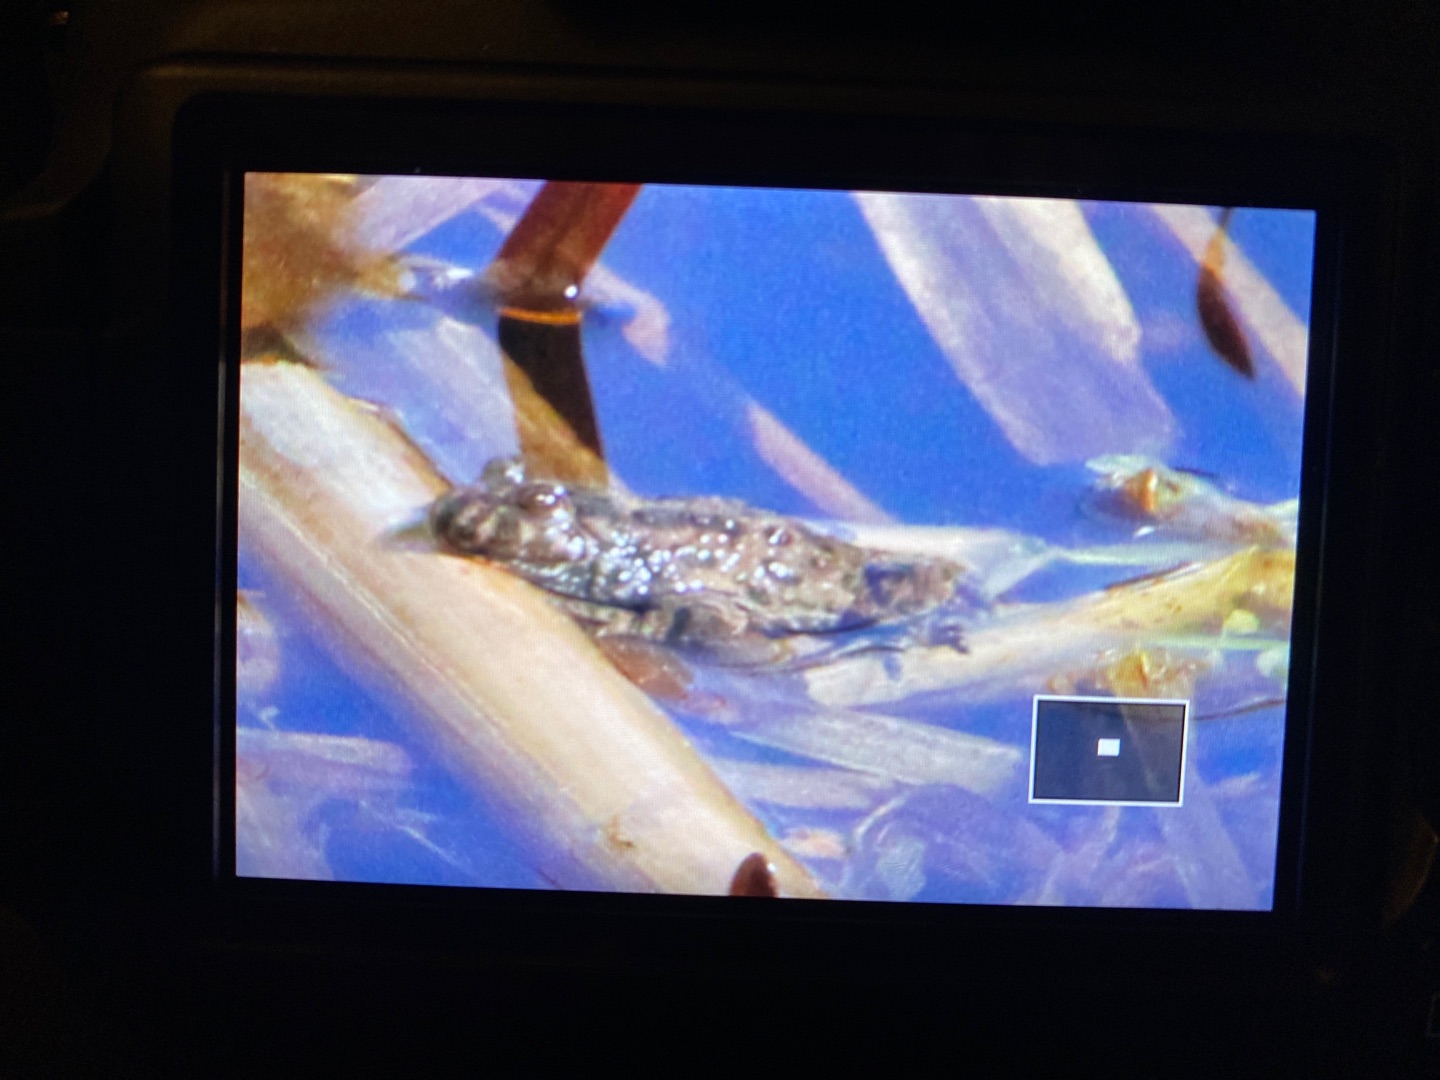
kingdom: Animalia
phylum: Chordata
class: Amphibia
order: Anura
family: Bombinatoridae
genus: Bombina
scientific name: Bombina bombina
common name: Klokkefrø
